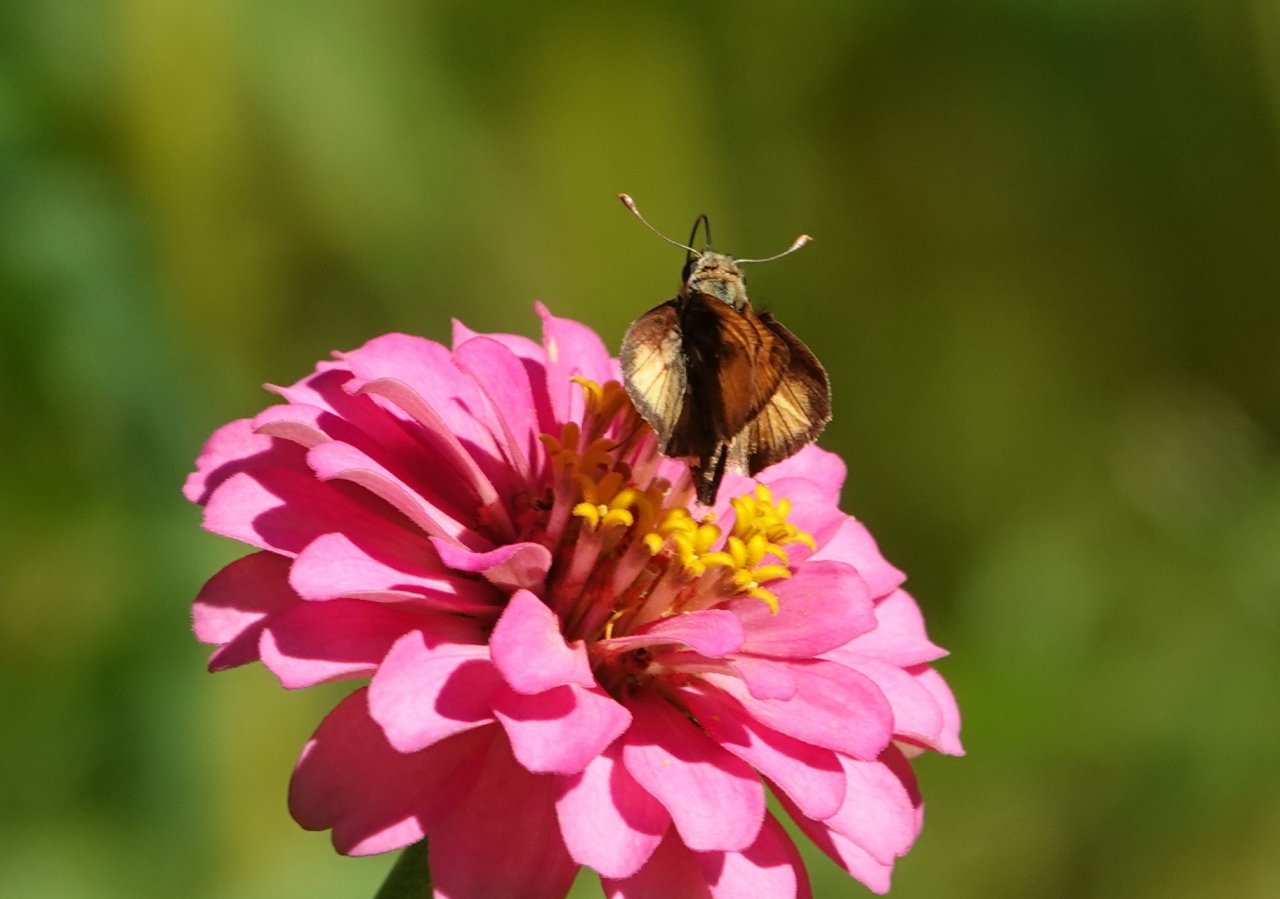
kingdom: Animalia
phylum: Arthropoda
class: Insecta
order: Lepidoptera
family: Hesperiidae
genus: Polites
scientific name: Polites vibex
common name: Whirlabout
